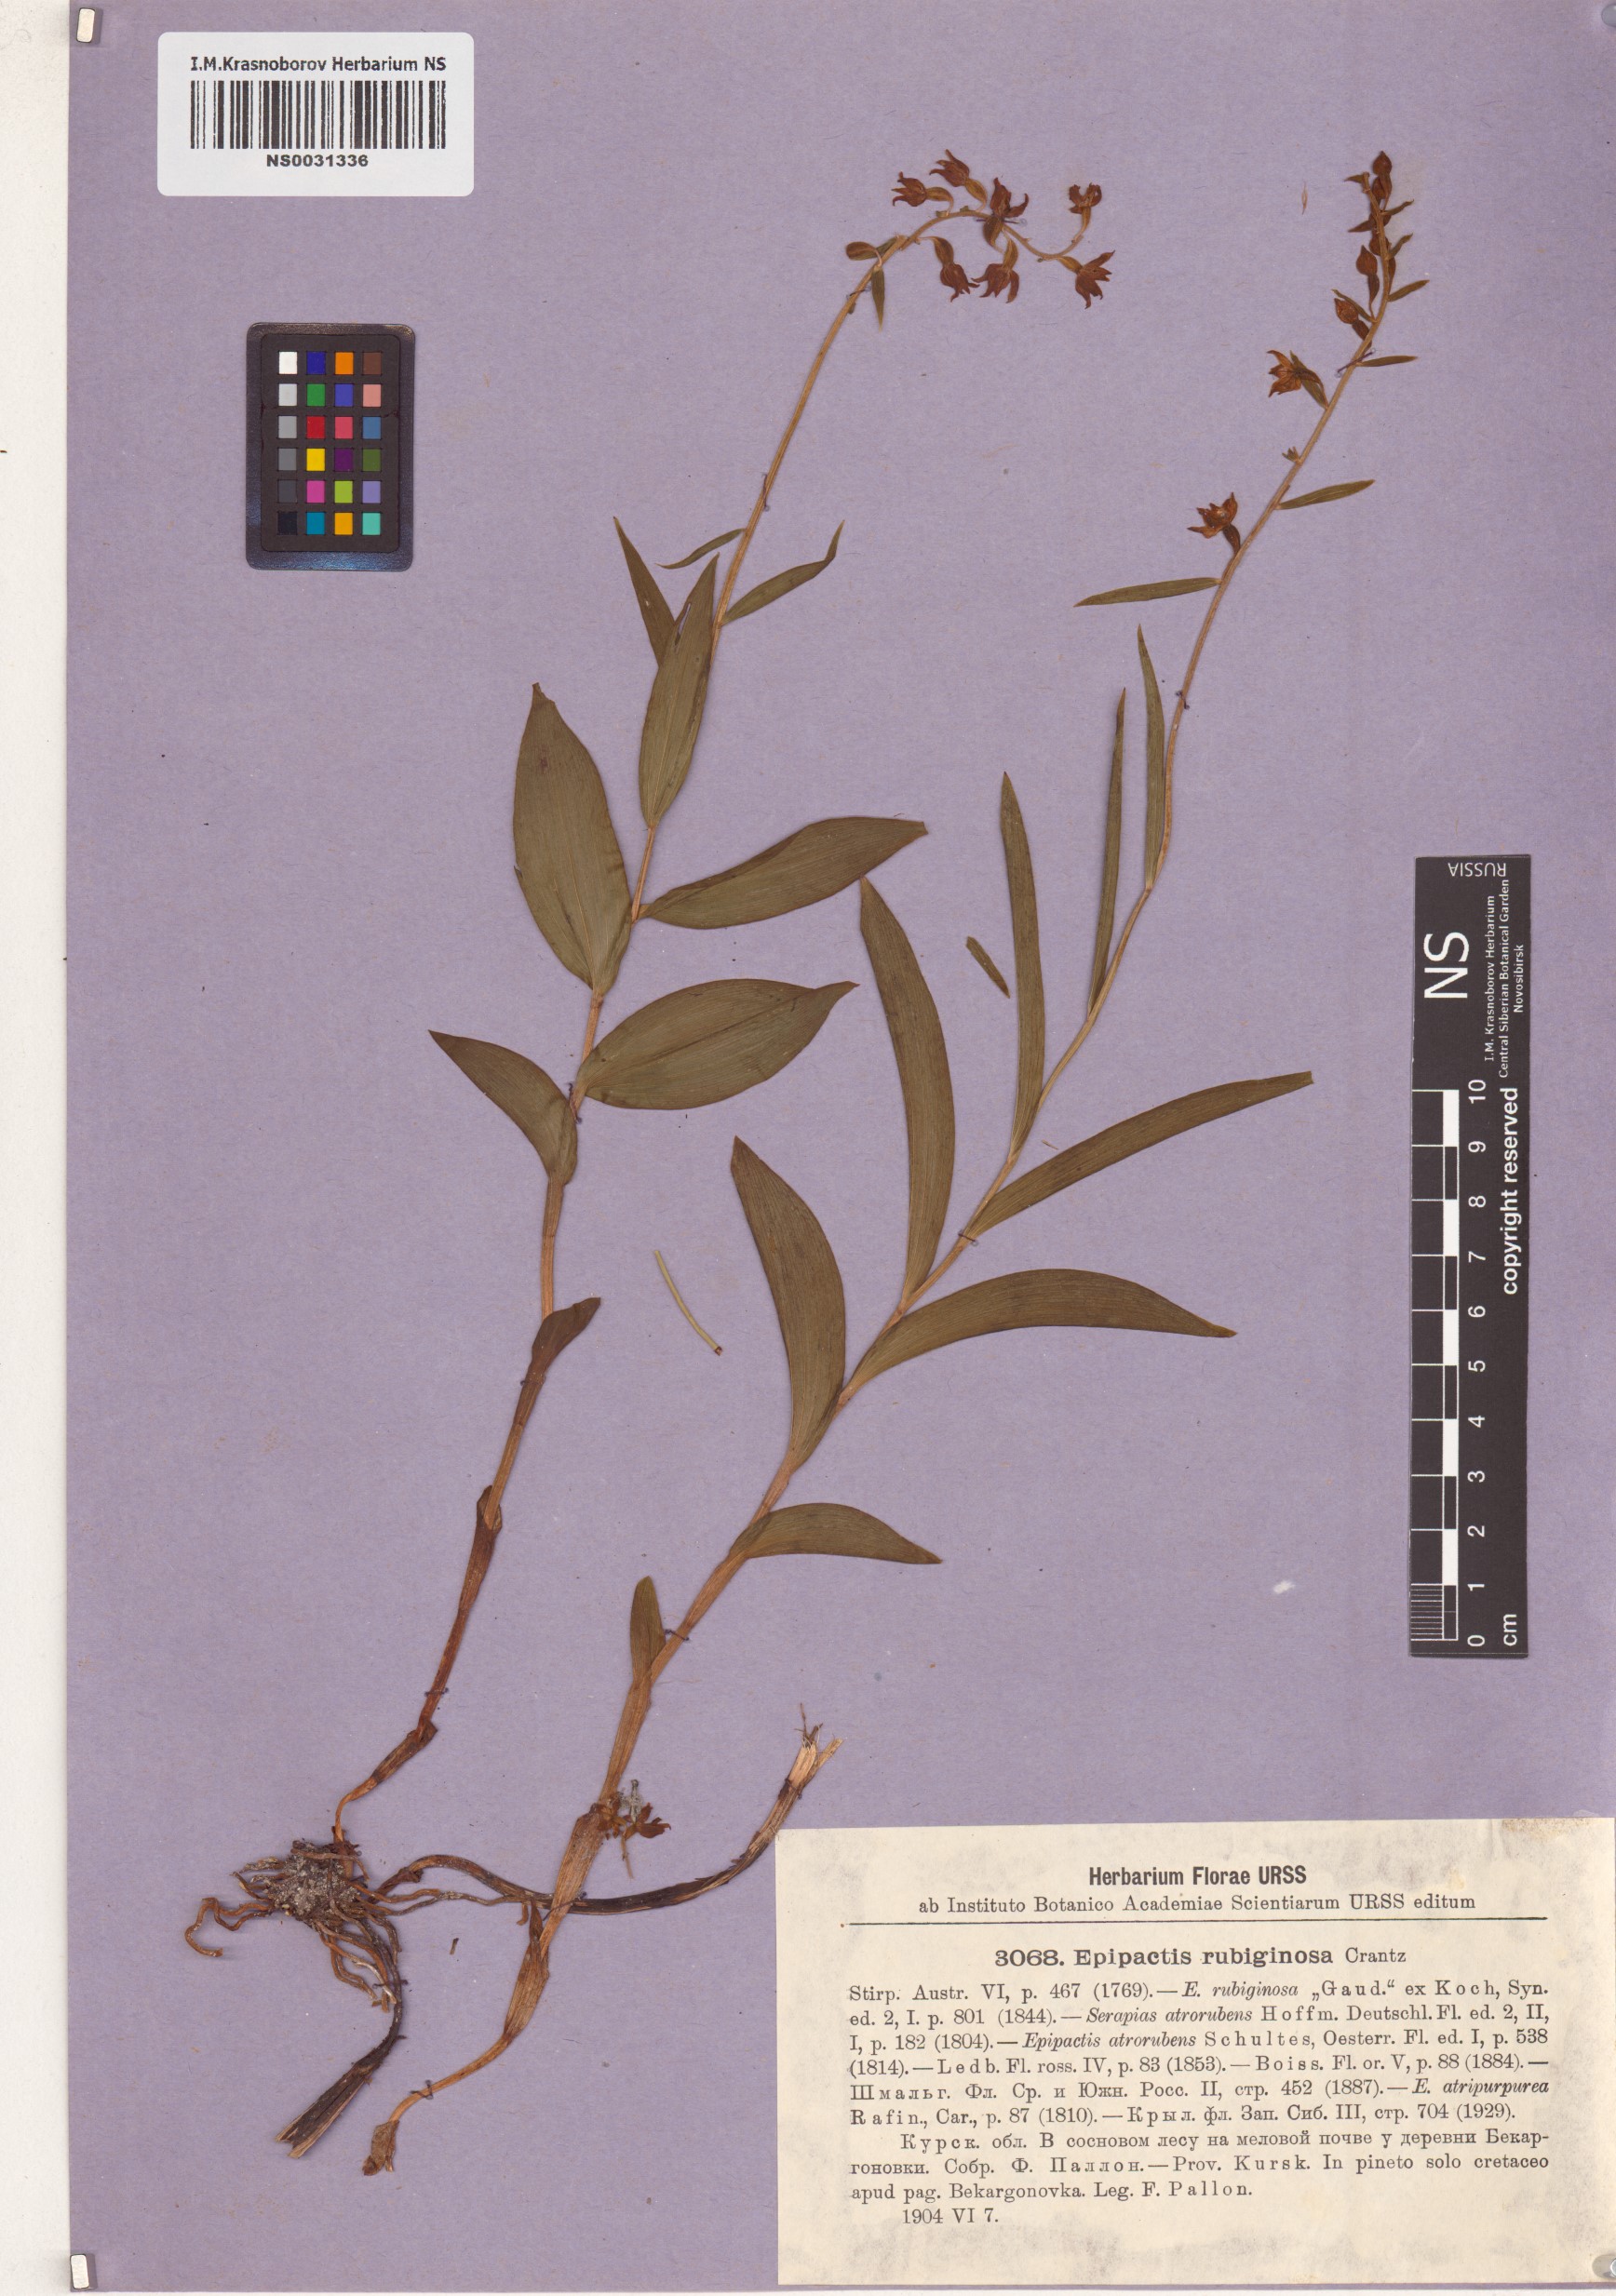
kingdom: Plantae
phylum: Tracheophyta
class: Liliopsida
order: Asparagales
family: Orchidaceae
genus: Epipactis
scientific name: Epipactis atrorubens
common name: Dark-red helleborine
